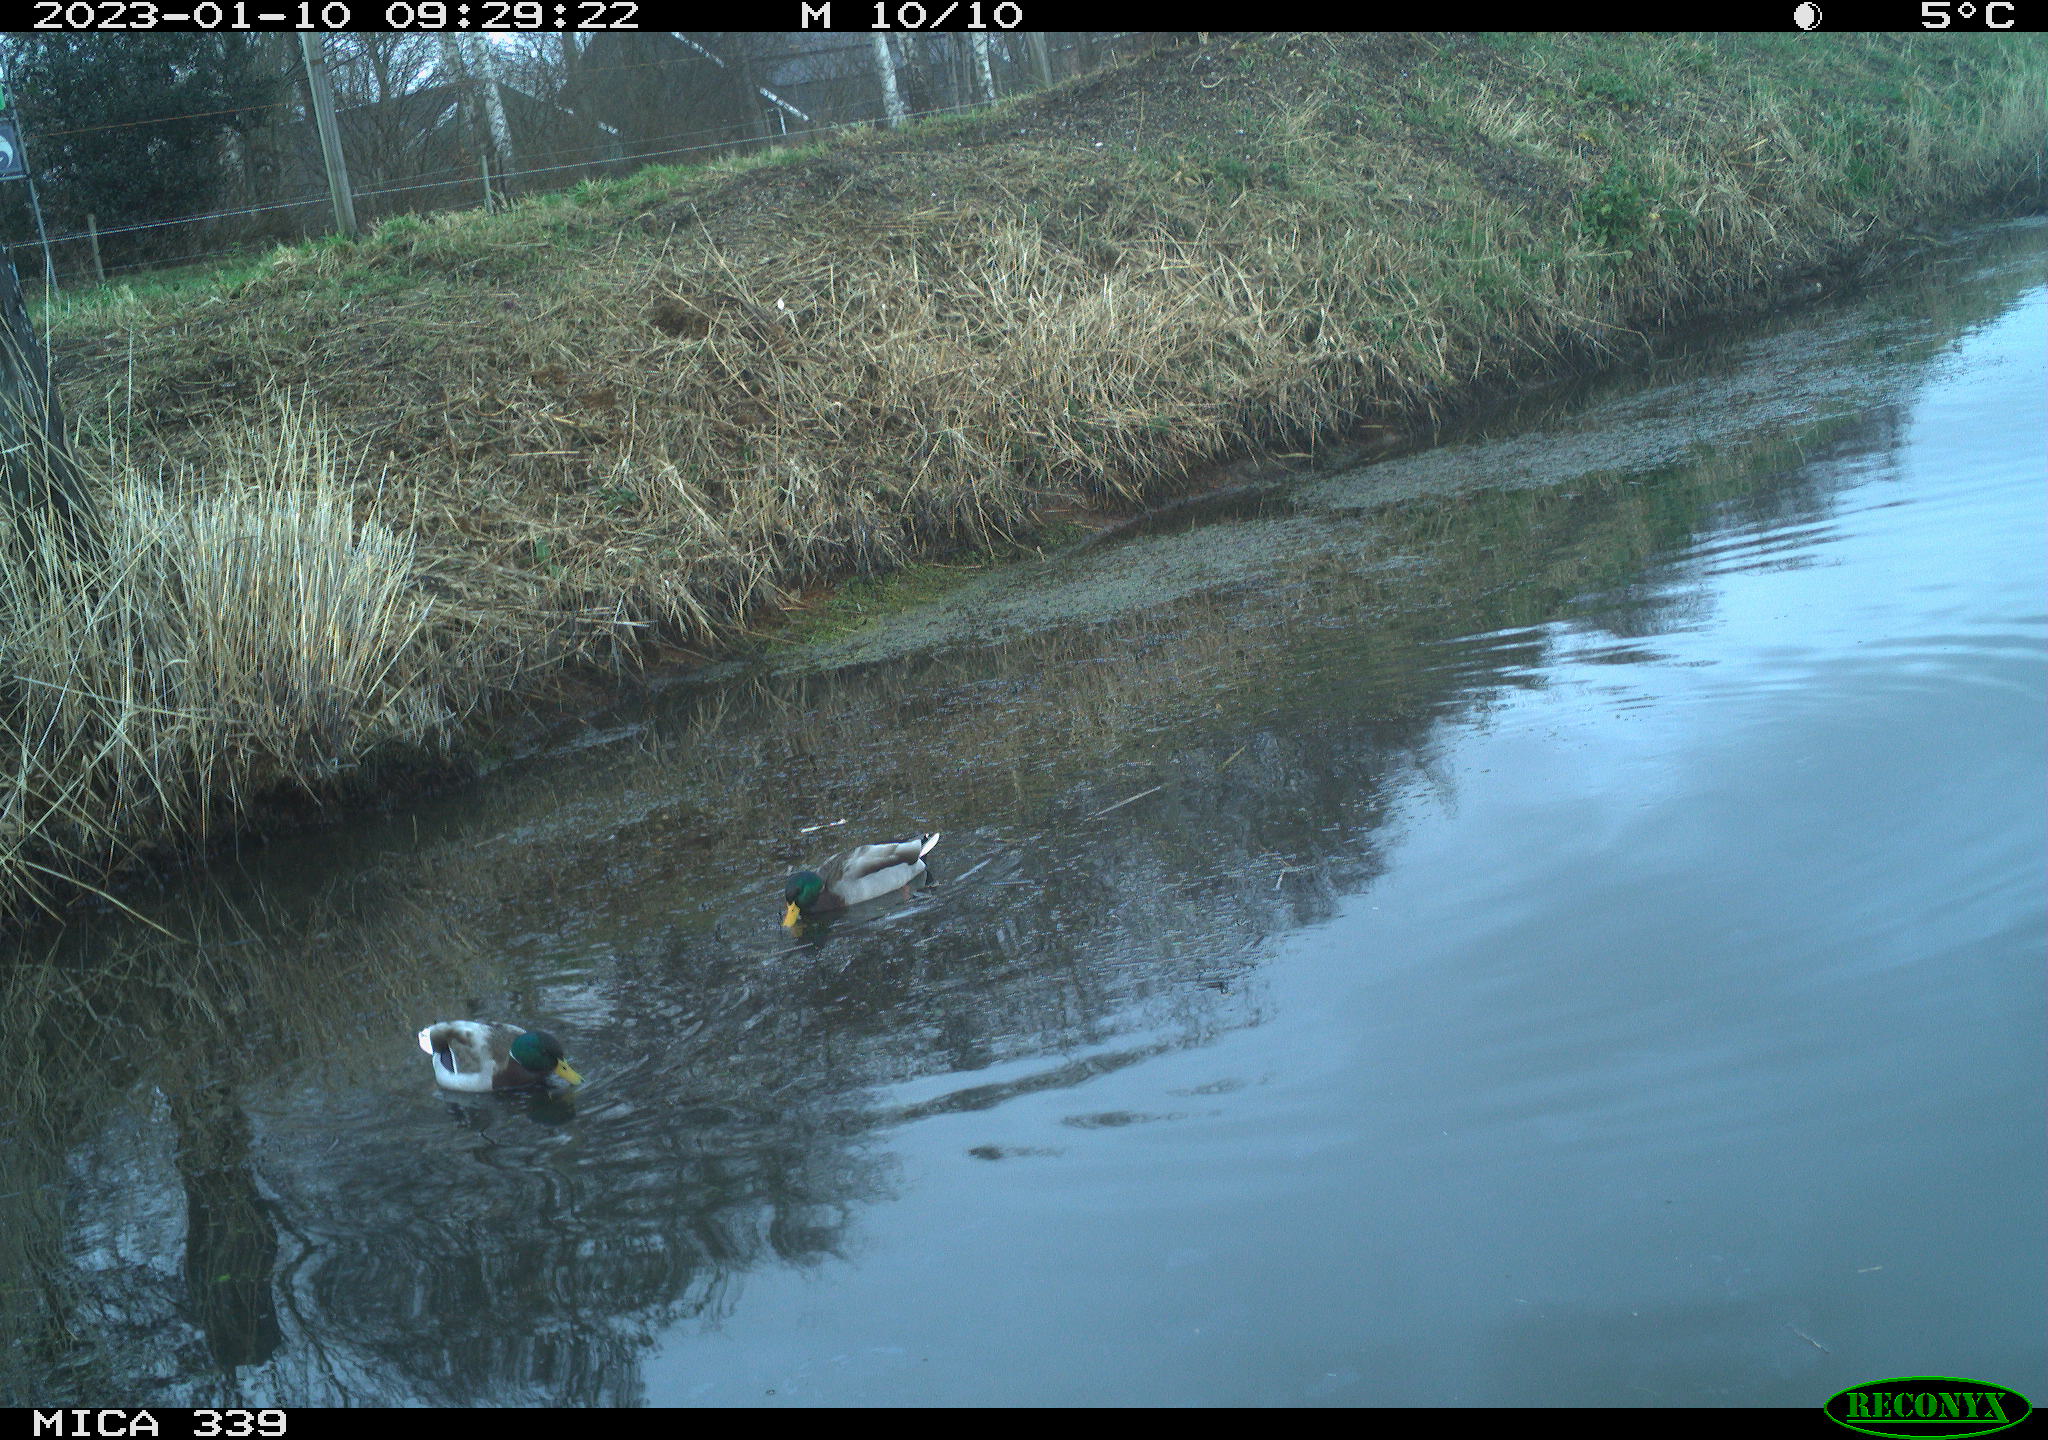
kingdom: Animalia
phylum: Chordata
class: Aves
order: Anseriformes
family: Anatidae
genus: Anas
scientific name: Anas
